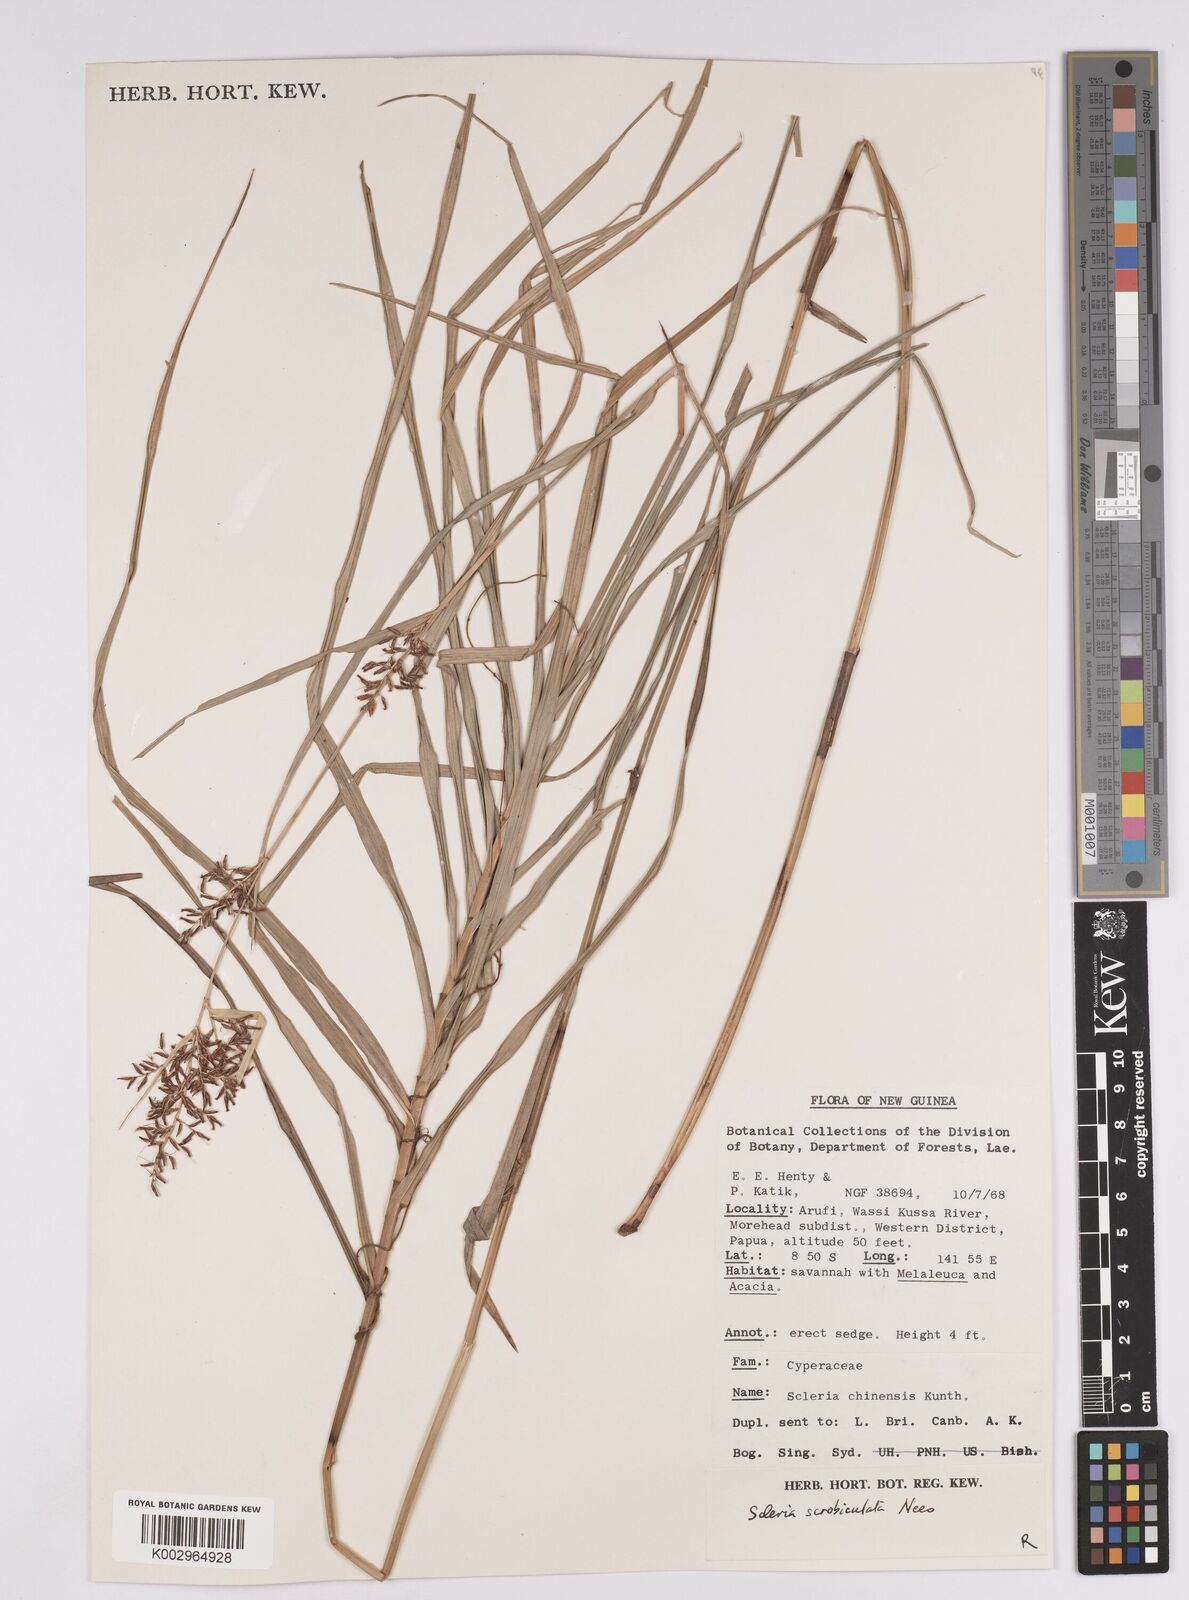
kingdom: Plantae
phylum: Tracheophyta
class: Liliopsida
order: Poales
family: Cyperaceae
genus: Scleria
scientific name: Scleria scrobiculata
